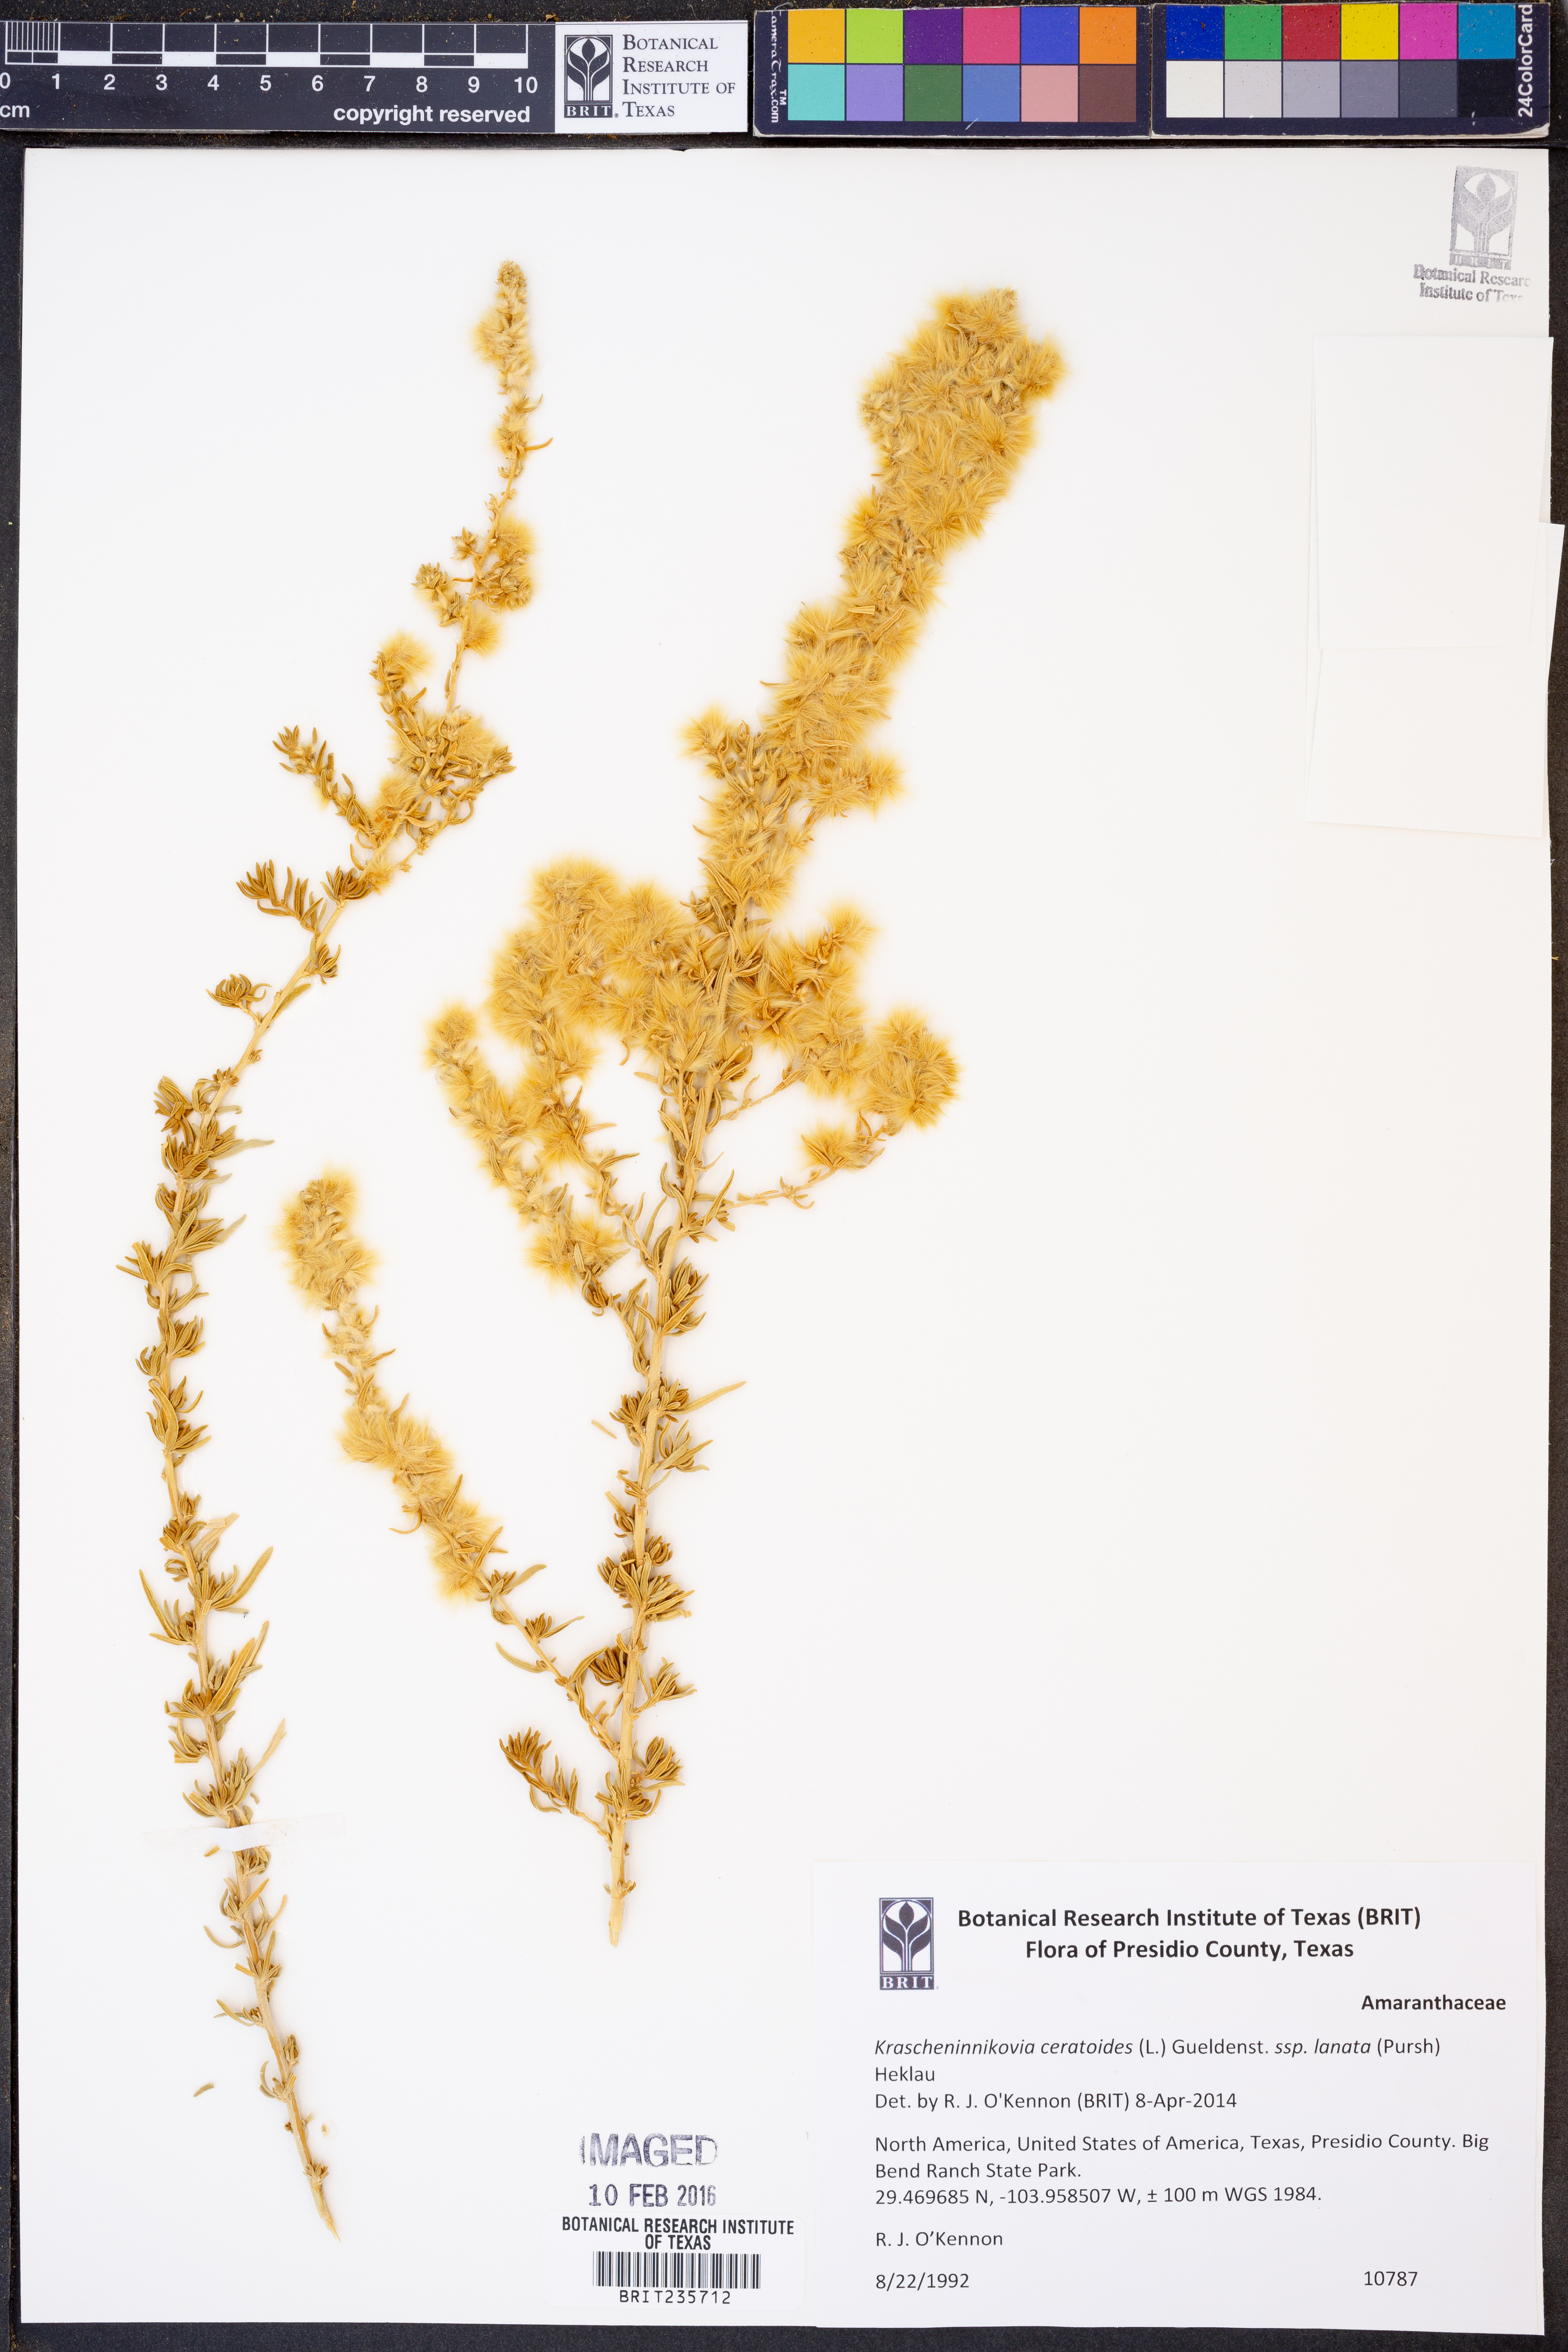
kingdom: Plantae
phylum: Tracheophyta
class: Magnoliopsida
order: Caryophyllales
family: Amaranthaceae
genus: Krascheninnikovia
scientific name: Krascheninnikovia ceratoides
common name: Pamirian winterfat
